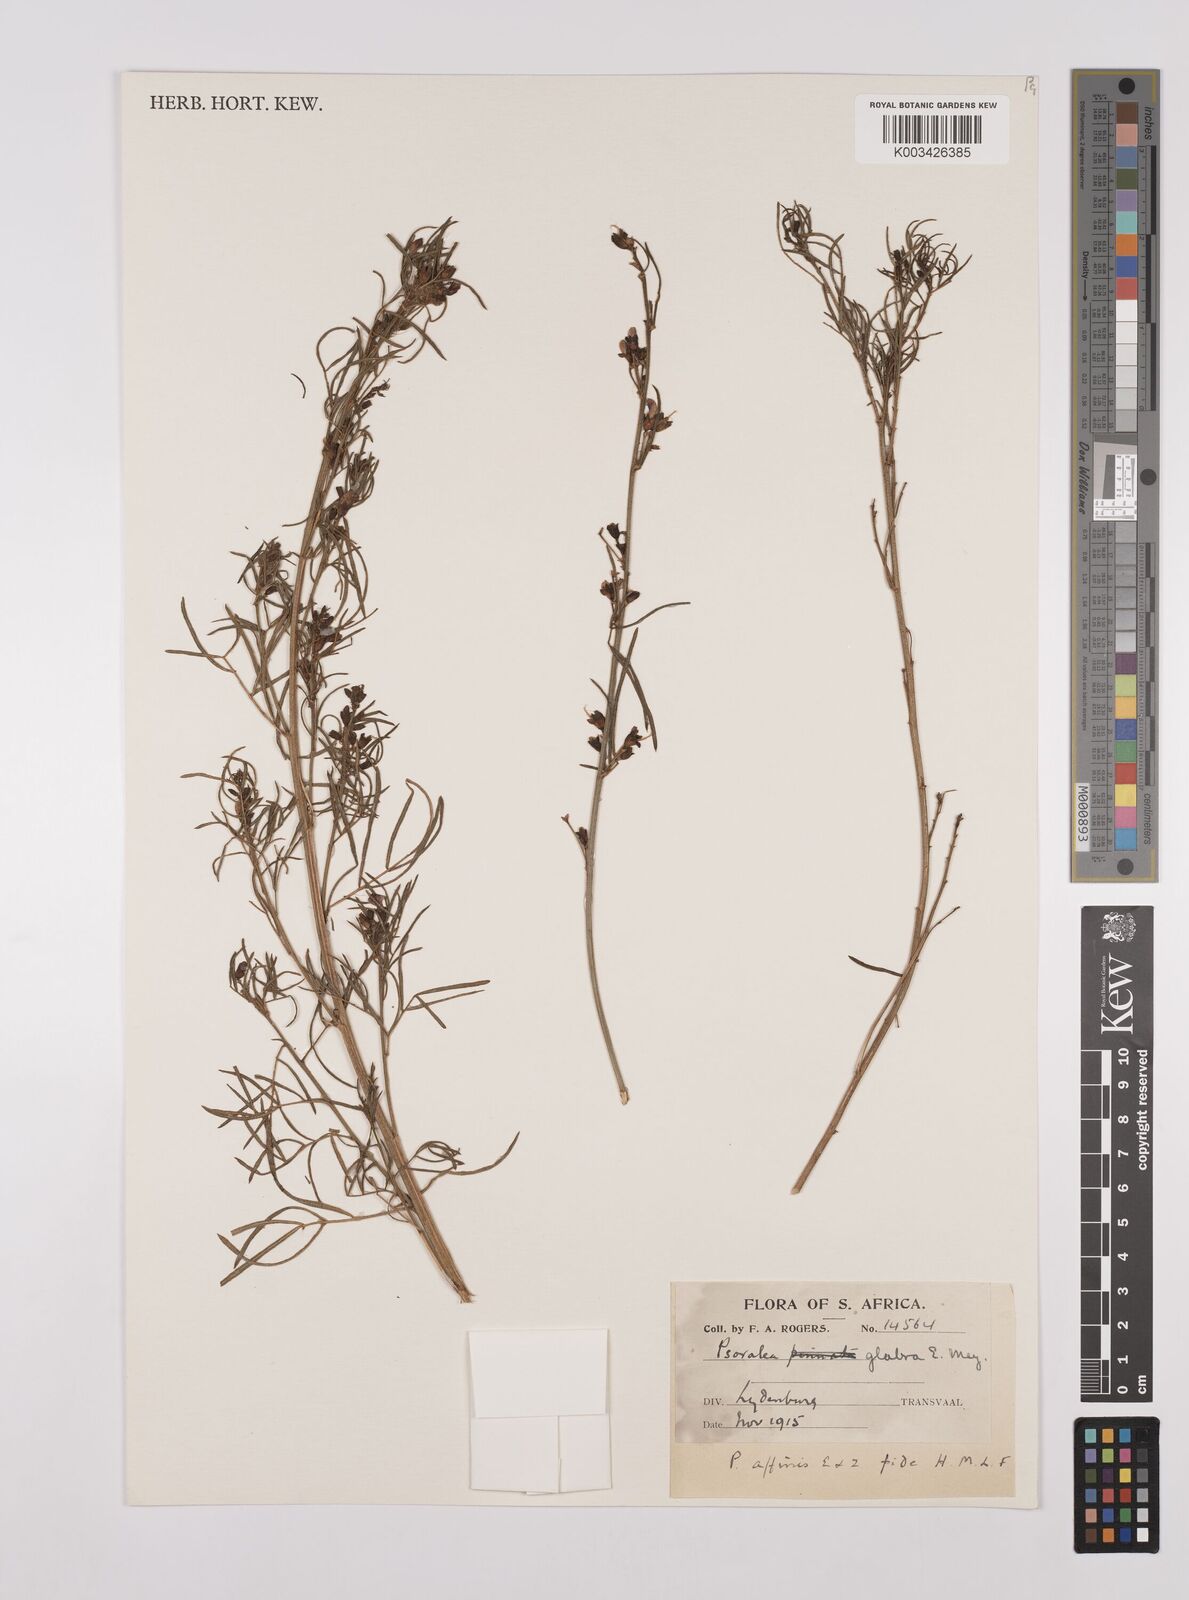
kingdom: Plantae
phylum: Tracheophyta
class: Magnoliopsida
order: Fabales
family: Fabaceae
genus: Psoralea
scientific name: Psoralea rhizotoma
